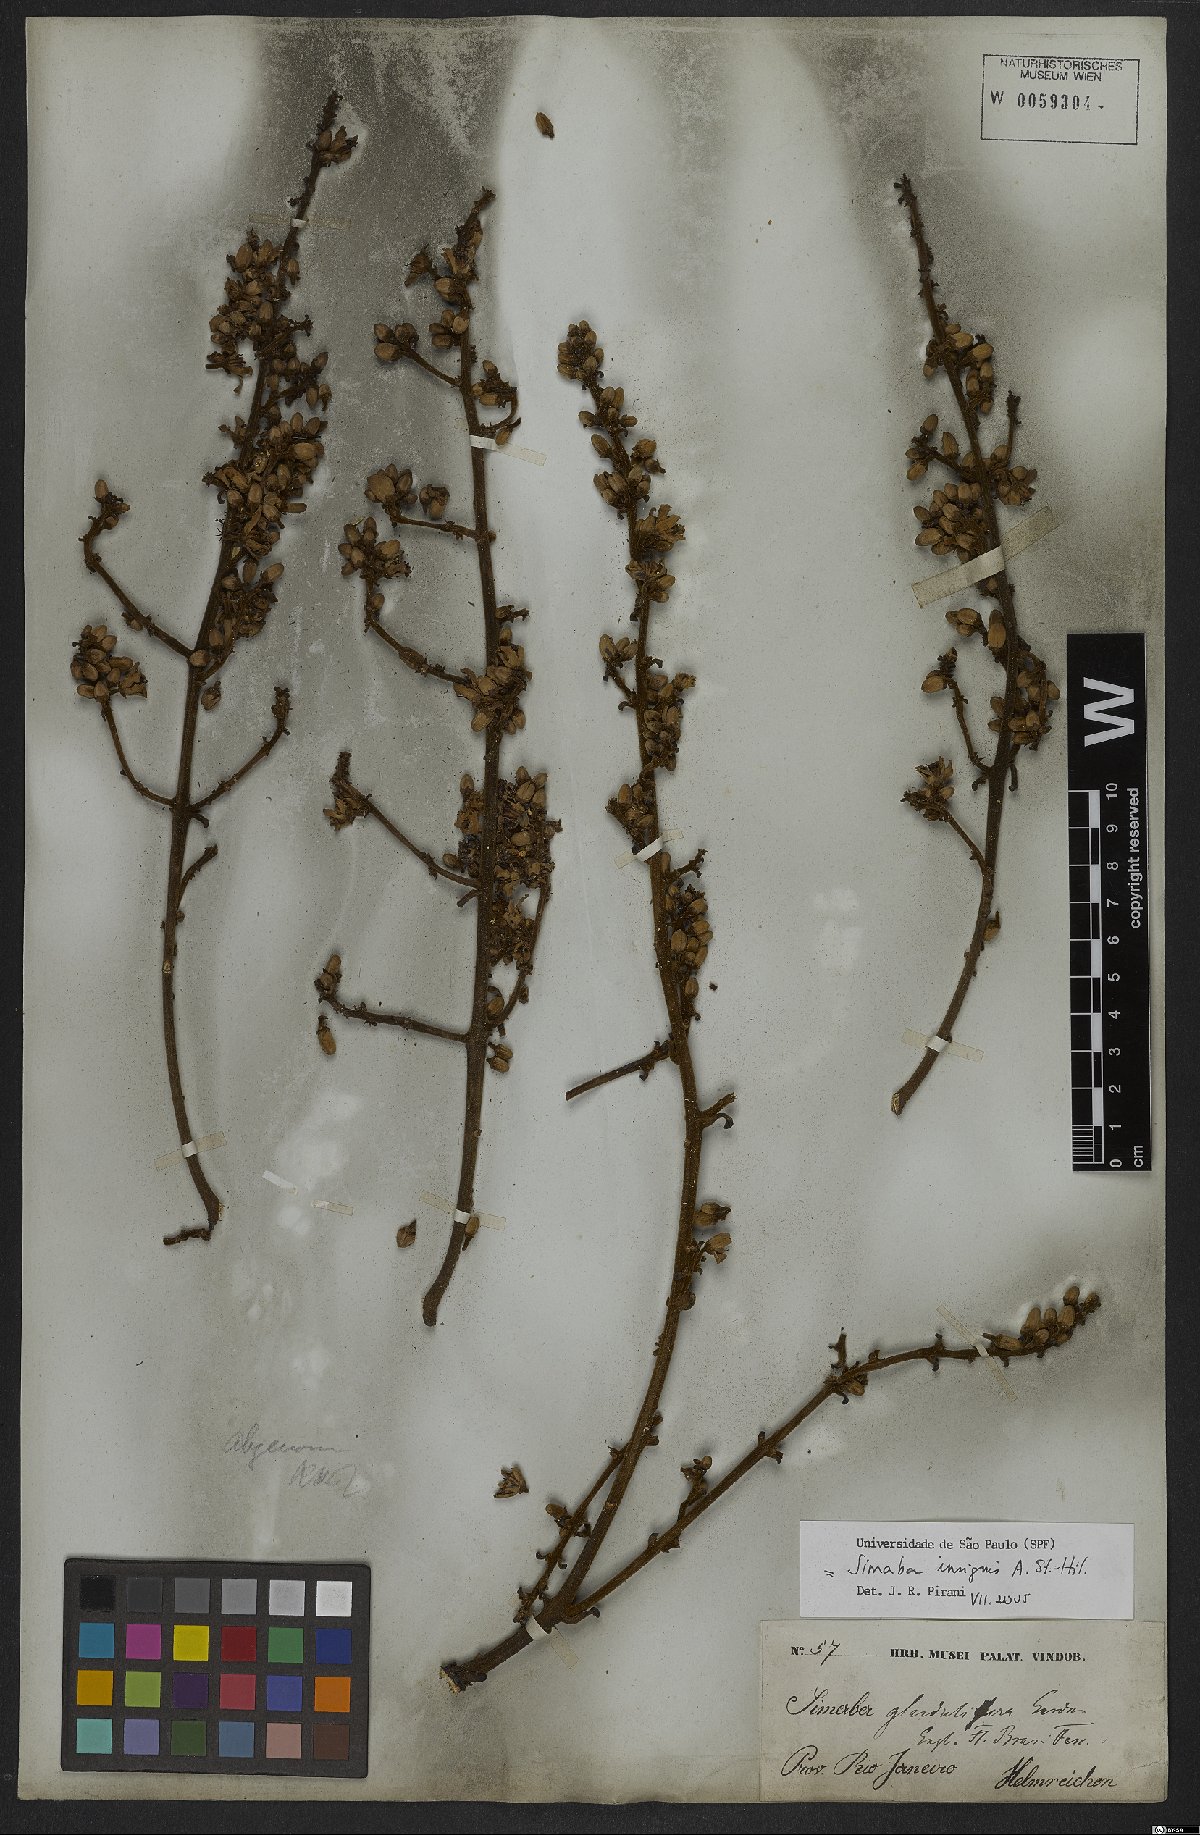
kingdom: Plantae
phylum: Tracheophyta
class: Magnoliopsida
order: Sapindales
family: Simaroubaceae
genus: Homalolepis
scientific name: Homalolepis insignis
